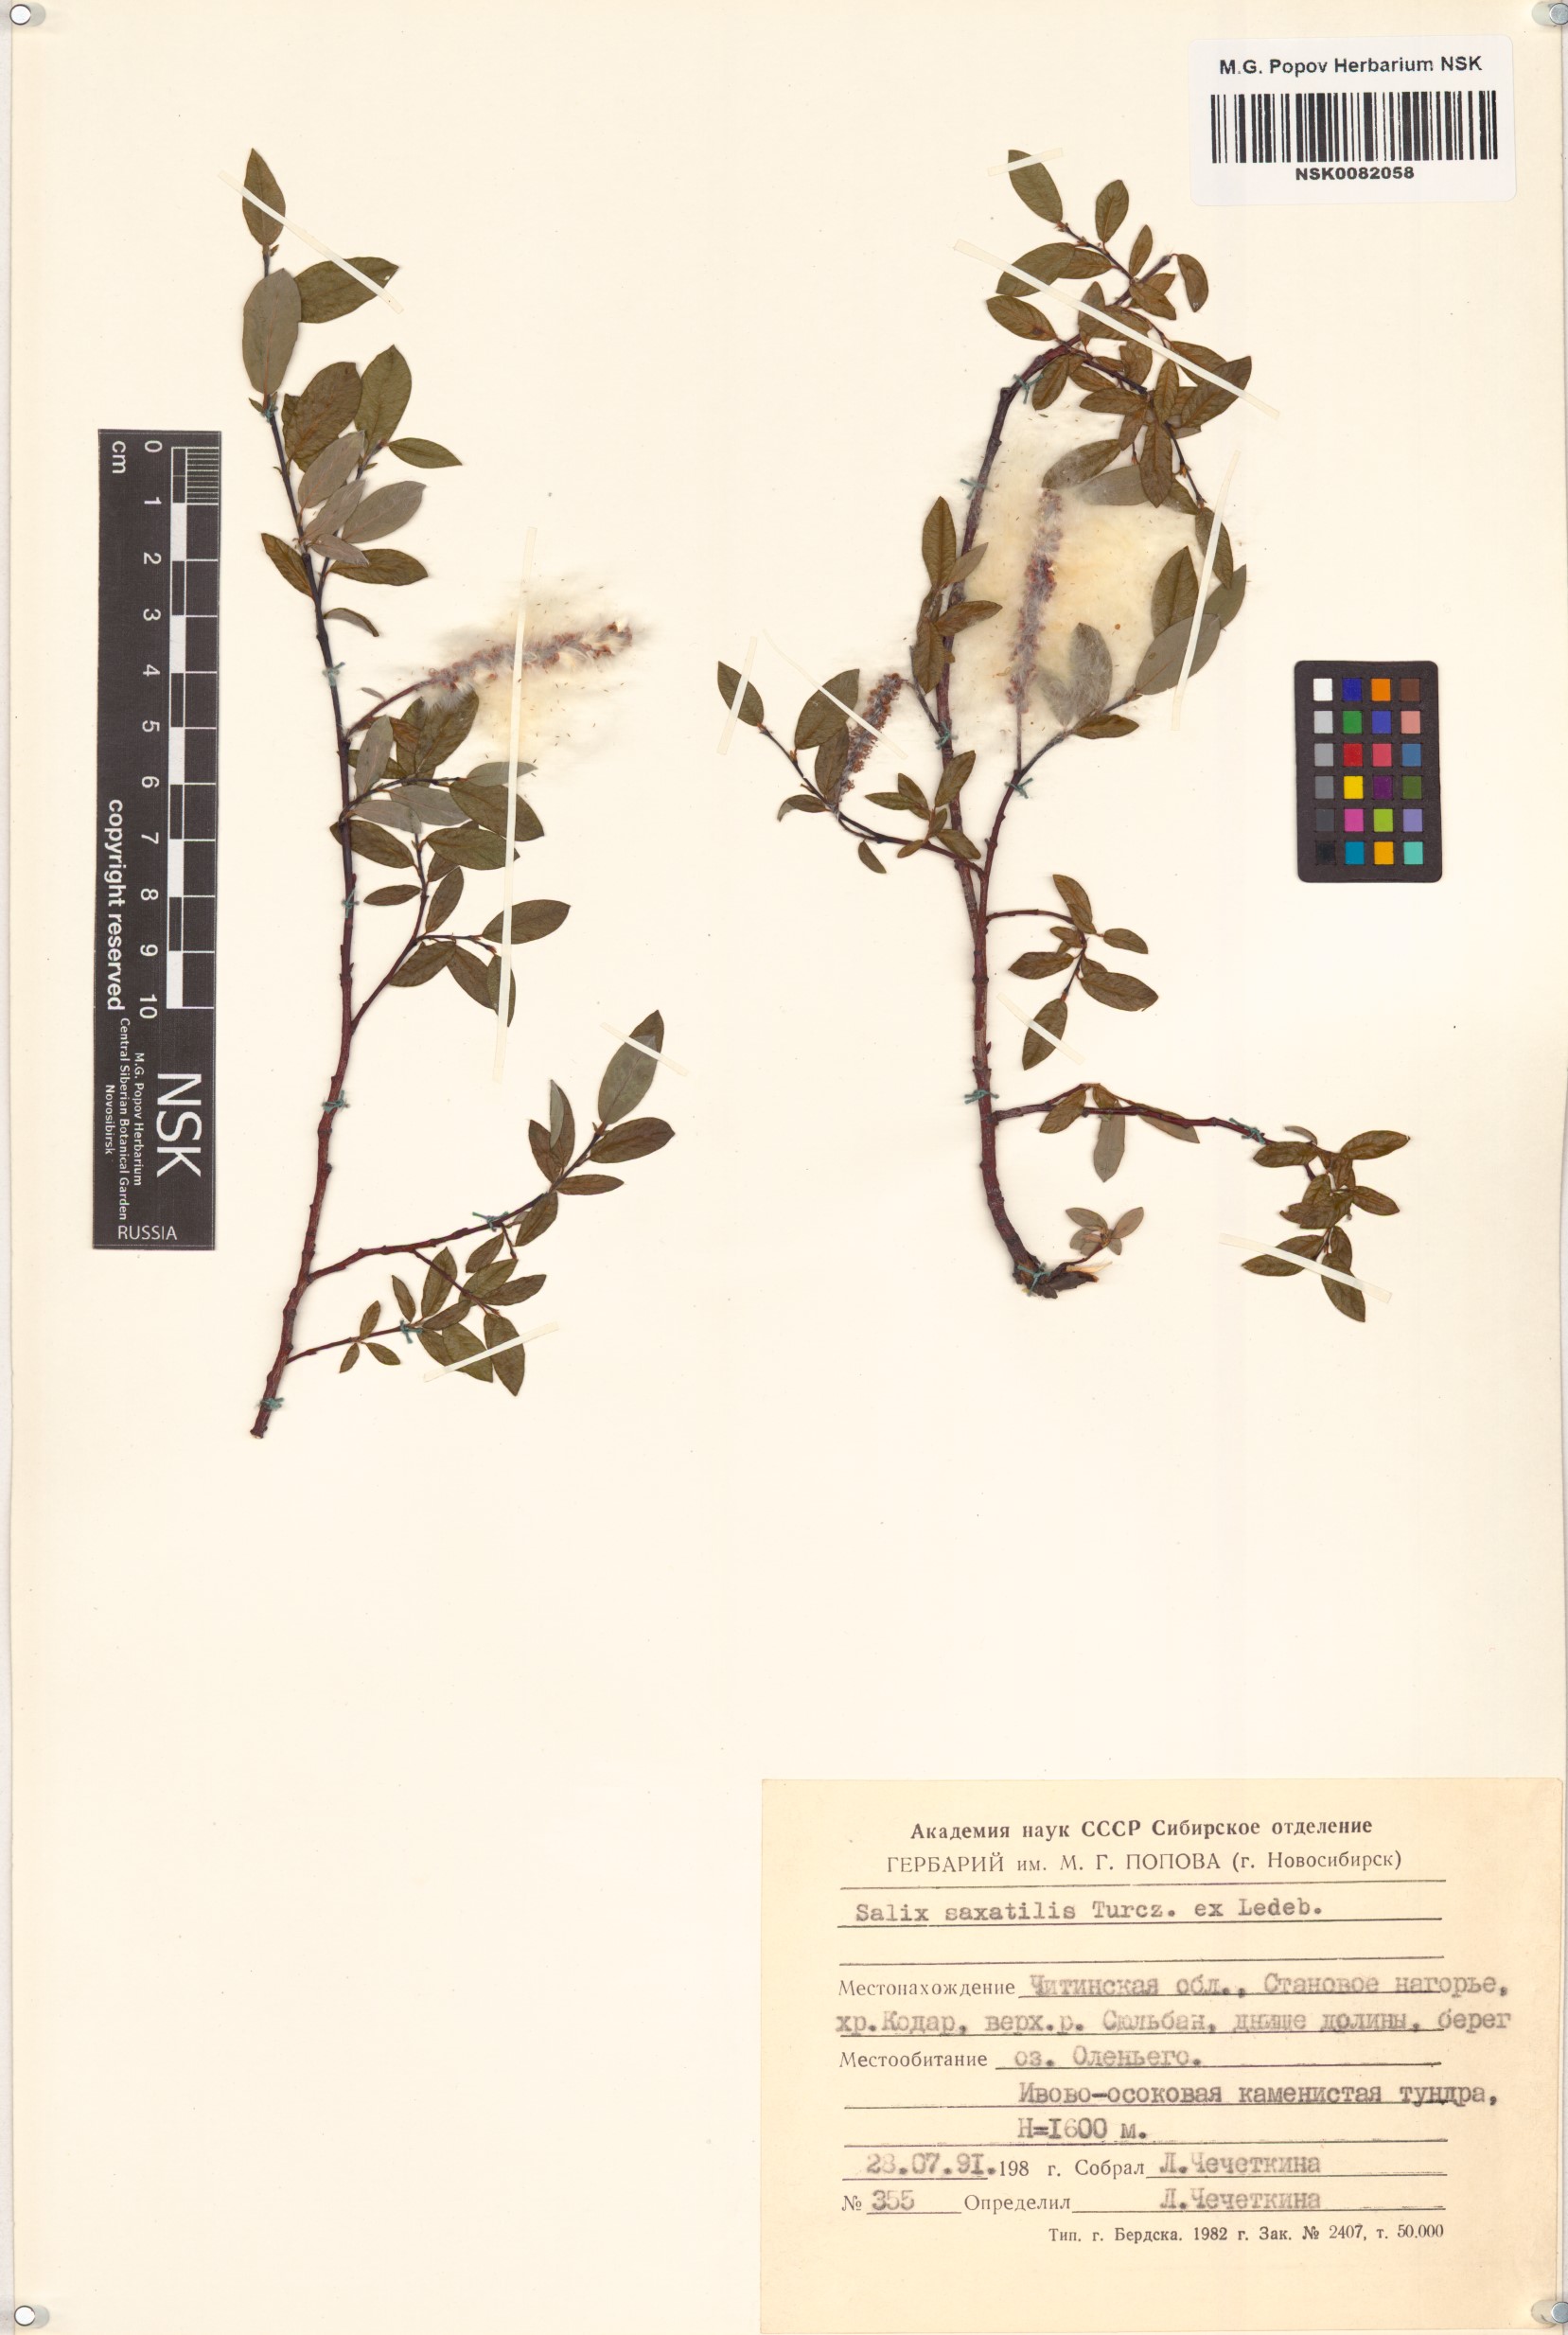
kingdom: Plantae
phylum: Tracheophyta
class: Magnoliopsida
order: Malpighiales
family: Salicaceae
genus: Salix
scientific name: Salix saxatilis
